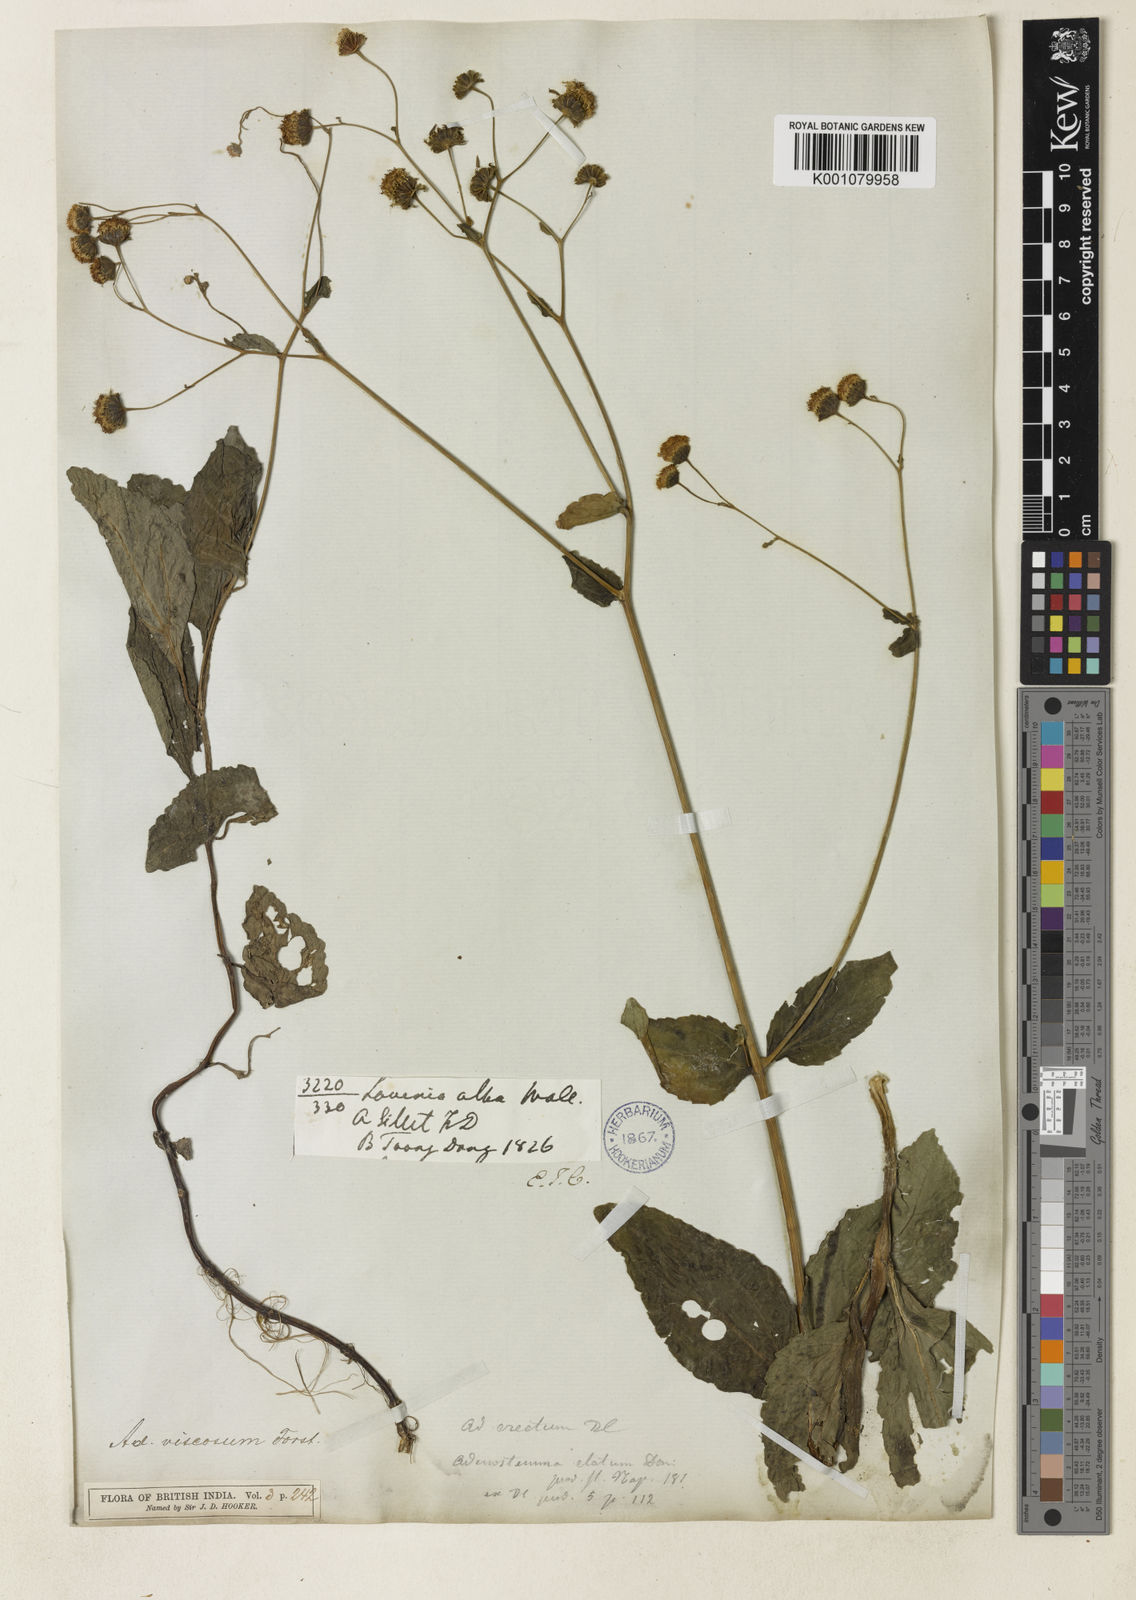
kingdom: Plantae
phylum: Tracheophyta
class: Magnoliopsida
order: Asterales
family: Asteraceae
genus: Adenostemma
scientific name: Adenostemma viscosum
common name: Dungweed
